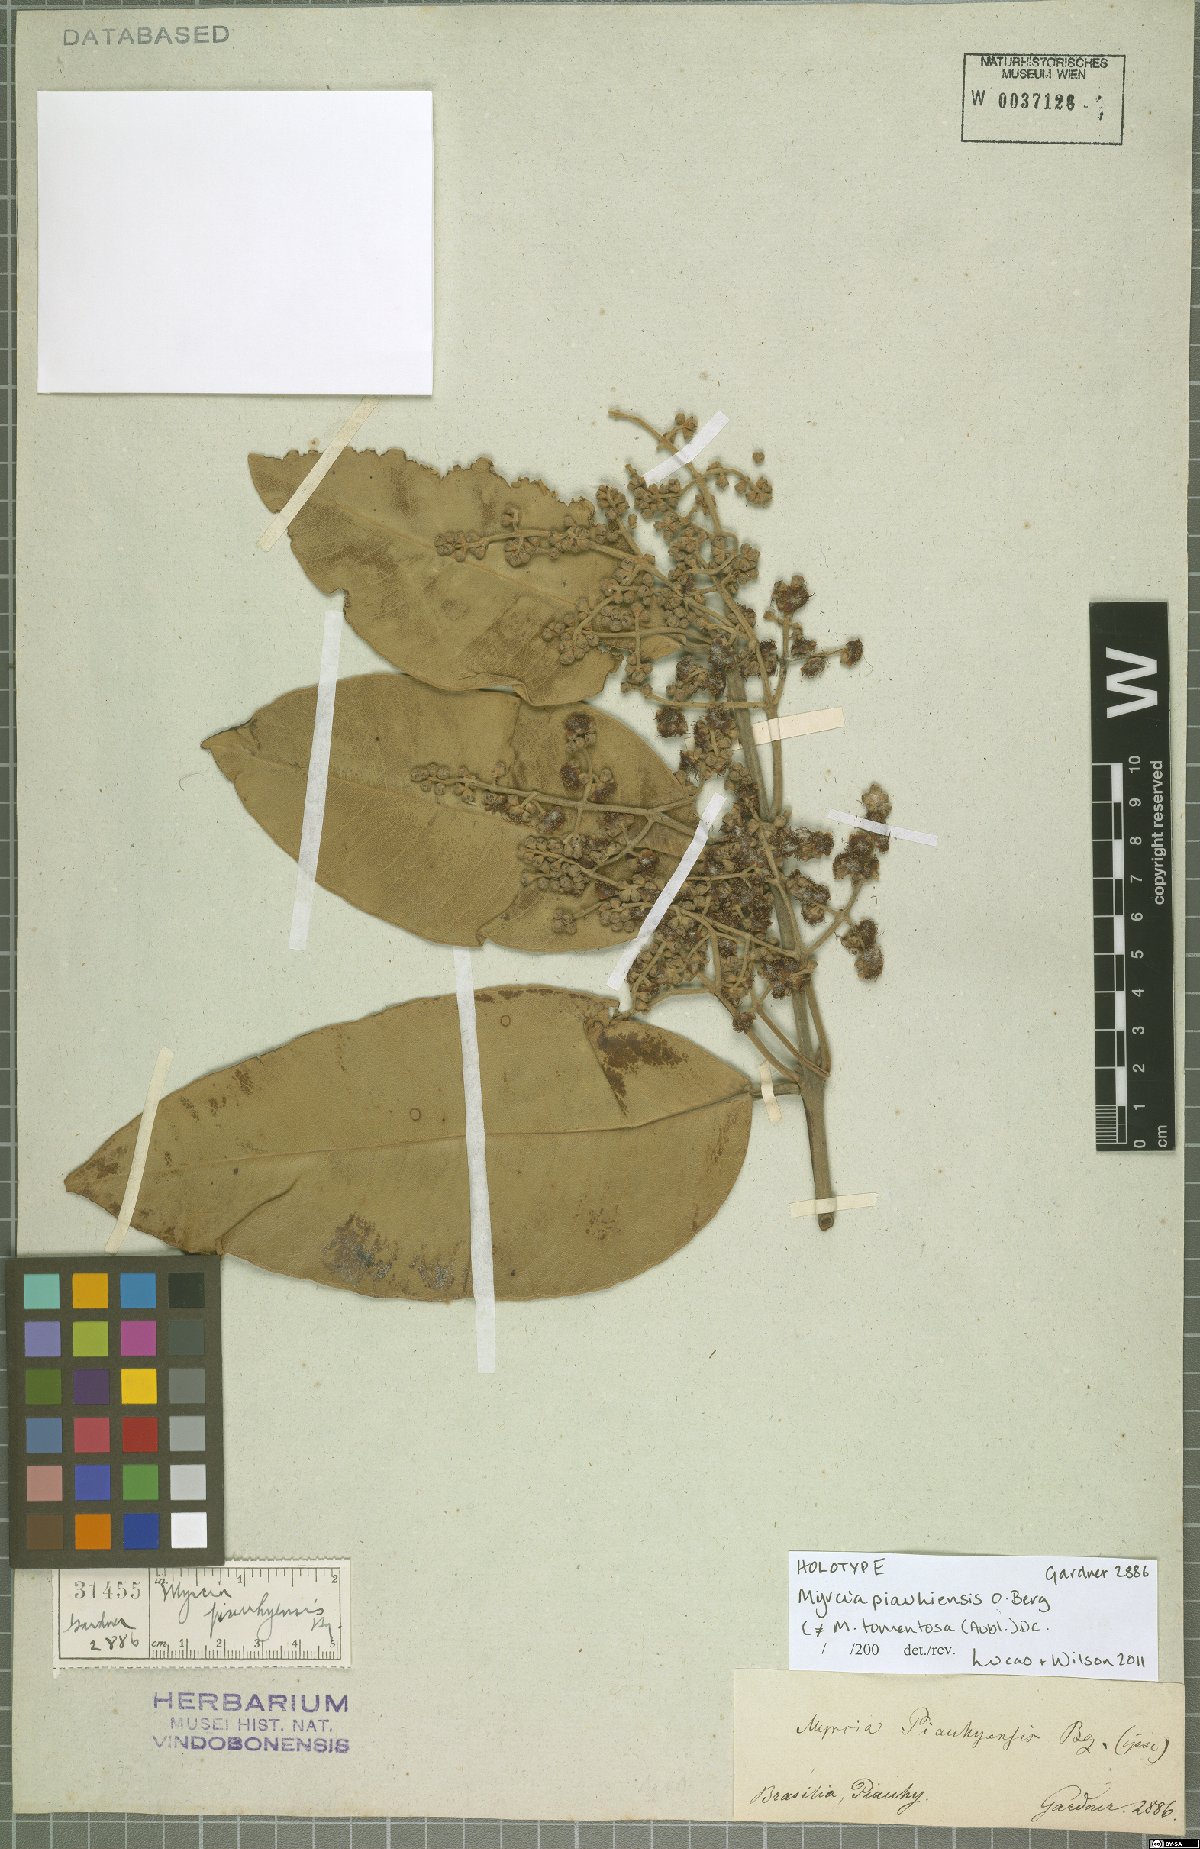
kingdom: Plantae
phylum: Tracheophyta
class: Magnoliopsida
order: Myrtales
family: Myrtaceae
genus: Myrcia
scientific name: Myrcia tomentosa
